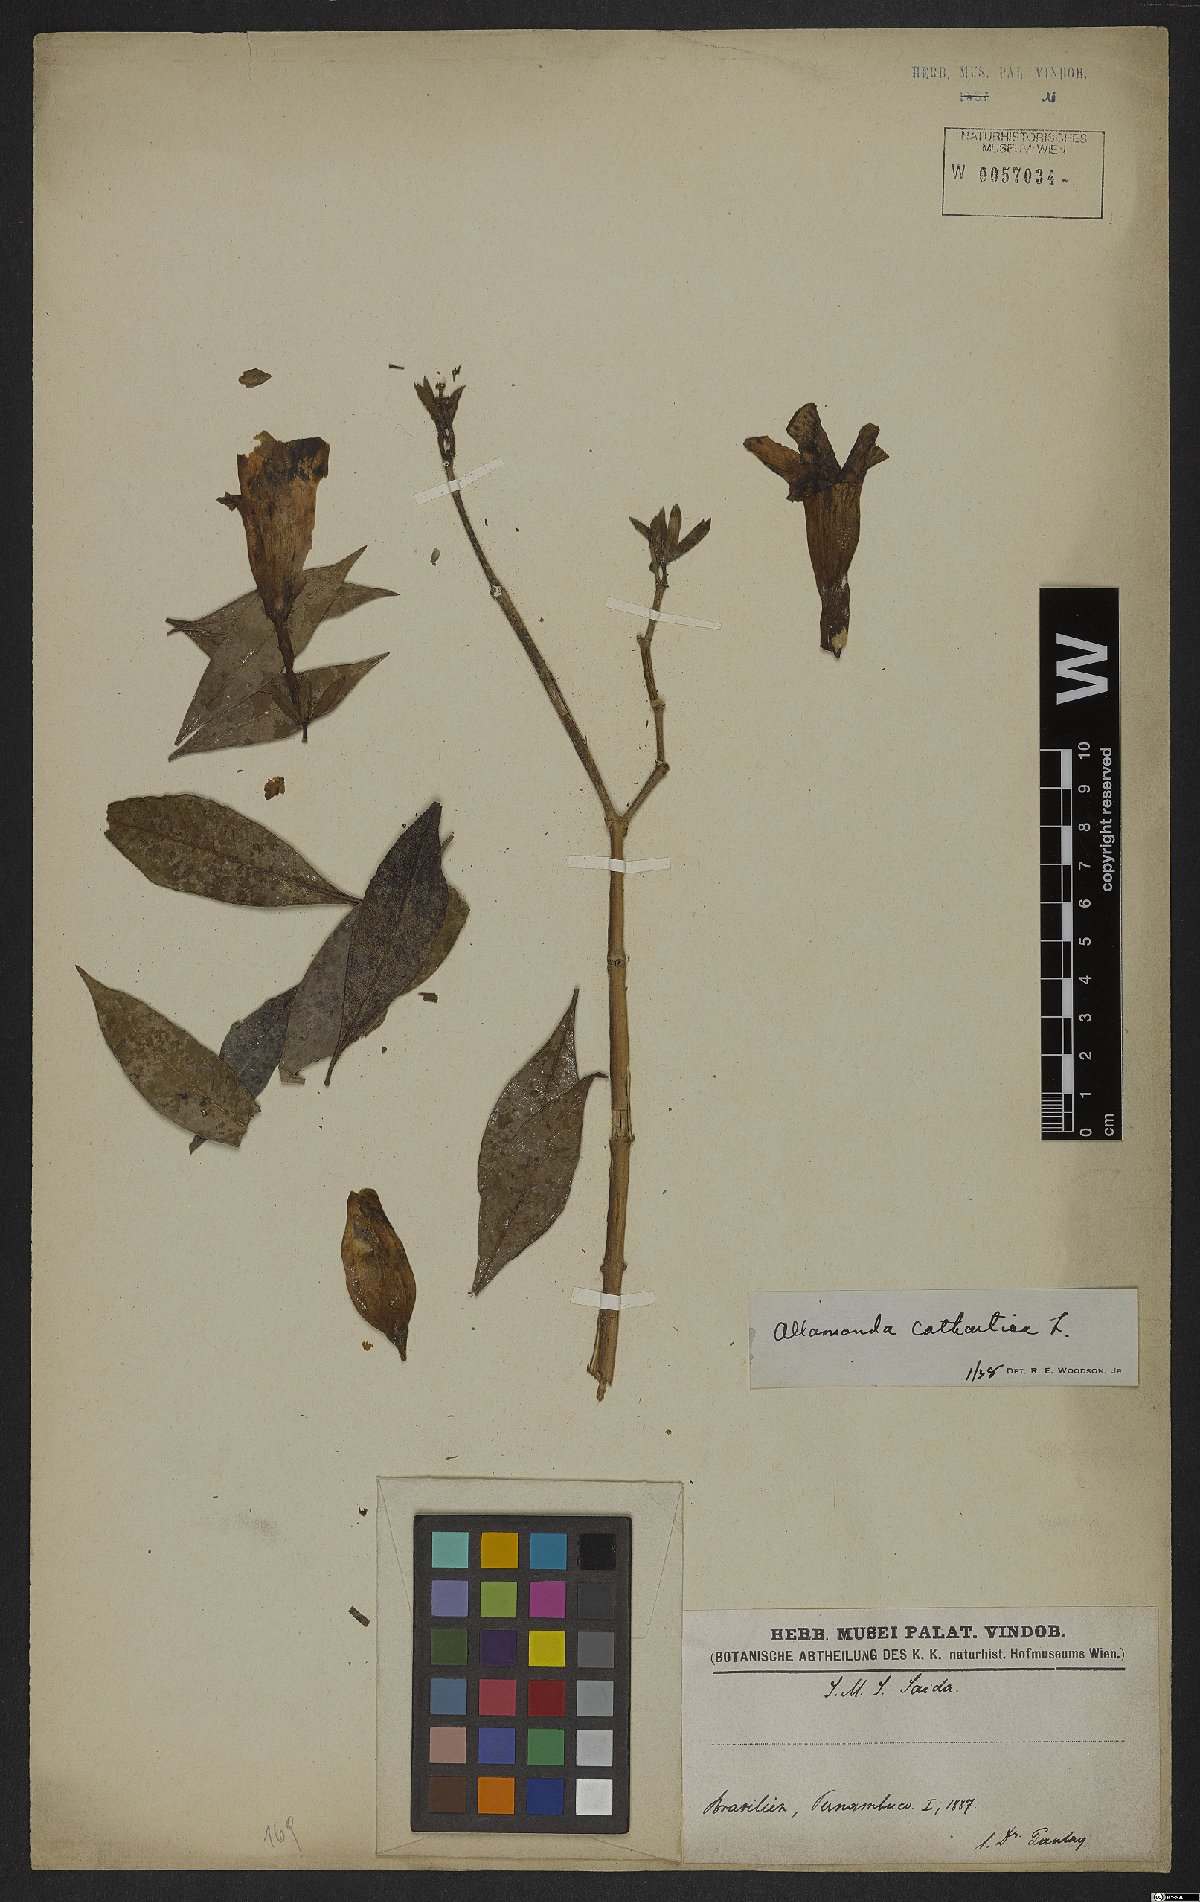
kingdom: Plantae
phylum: Tracheophyta
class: Magnoliopsida
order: Gentianales
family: Apocynaceae
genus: Allamanda
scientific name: Allamanda cathartica
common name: Golden trumpet
